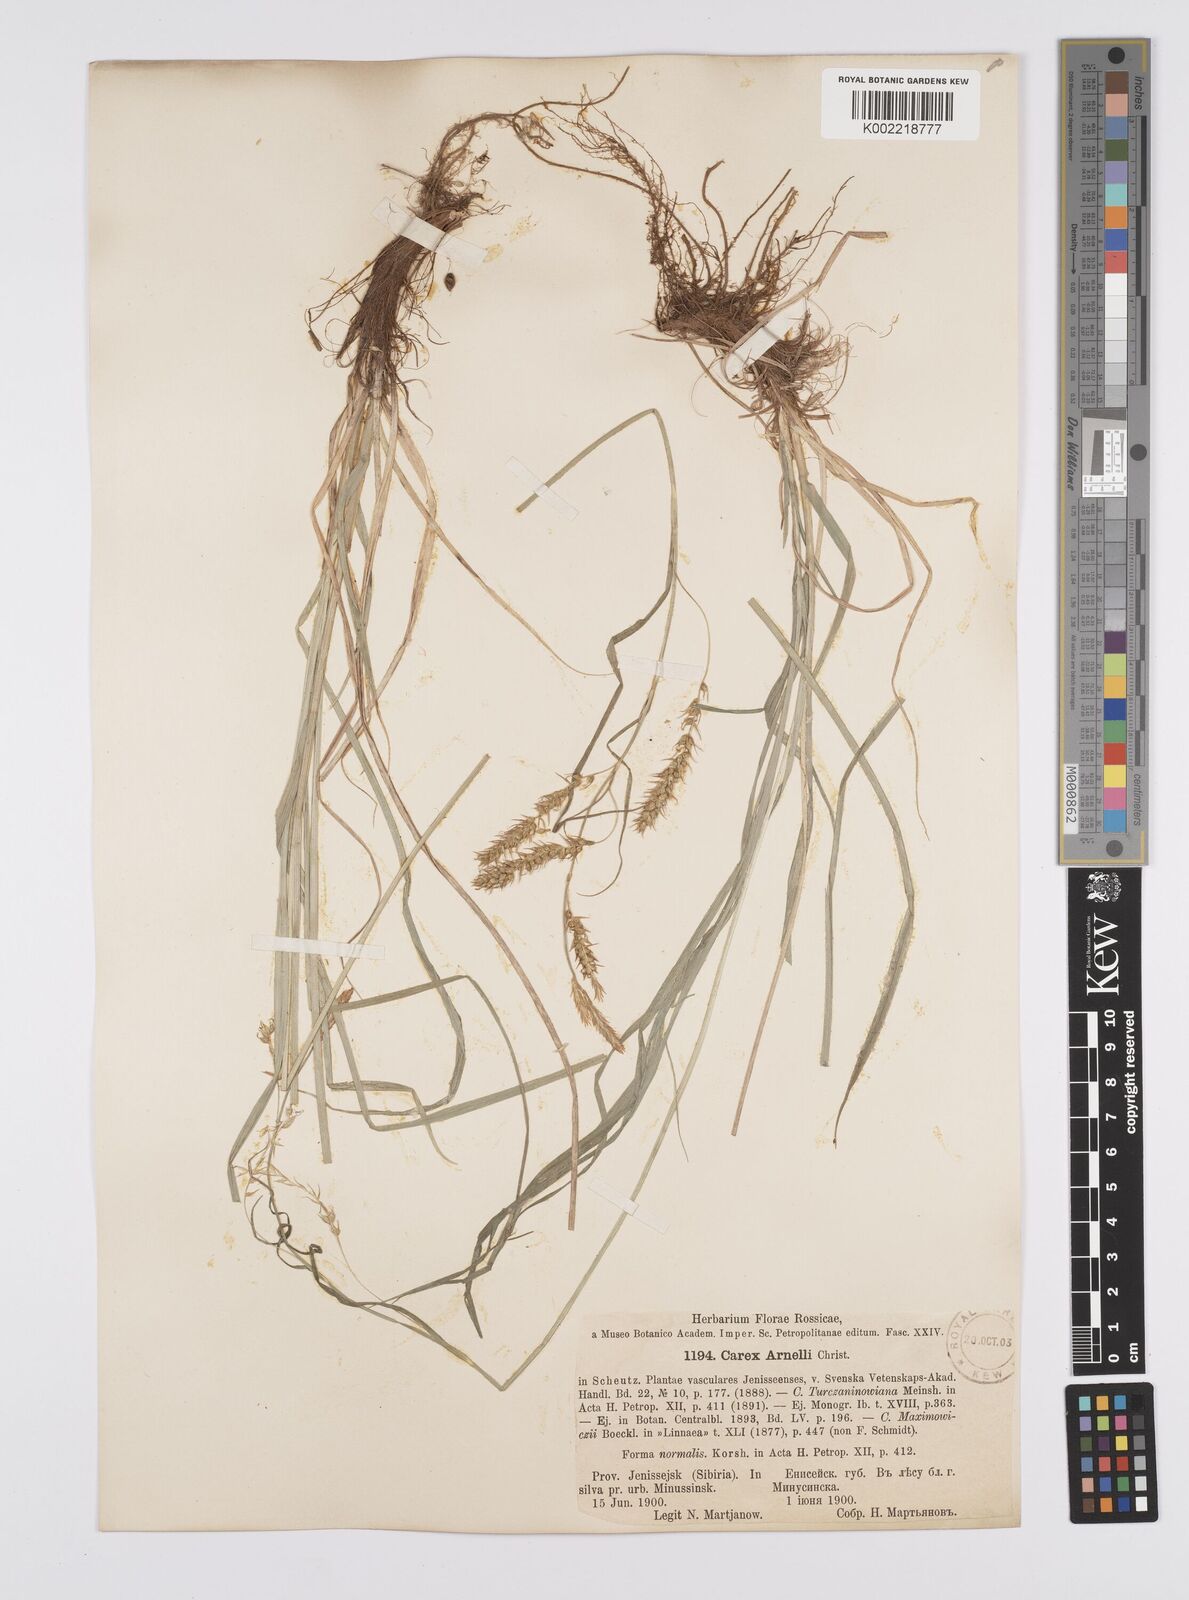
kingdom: Plantae
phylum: Tracheophyta
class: Liliopsida
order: Poales
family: Cyperaceae
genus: Carex
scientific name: Carex arnellii
